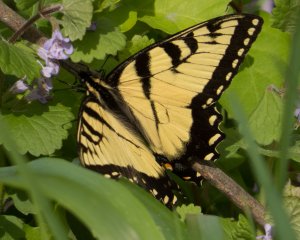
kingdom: Animalia
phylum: Arthropoda
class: Insecta
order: Lepidoptera
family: Papilionidae
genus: Pterourus
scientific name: Pterourus glaucus
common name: Eastern Tiger Swallowtail
